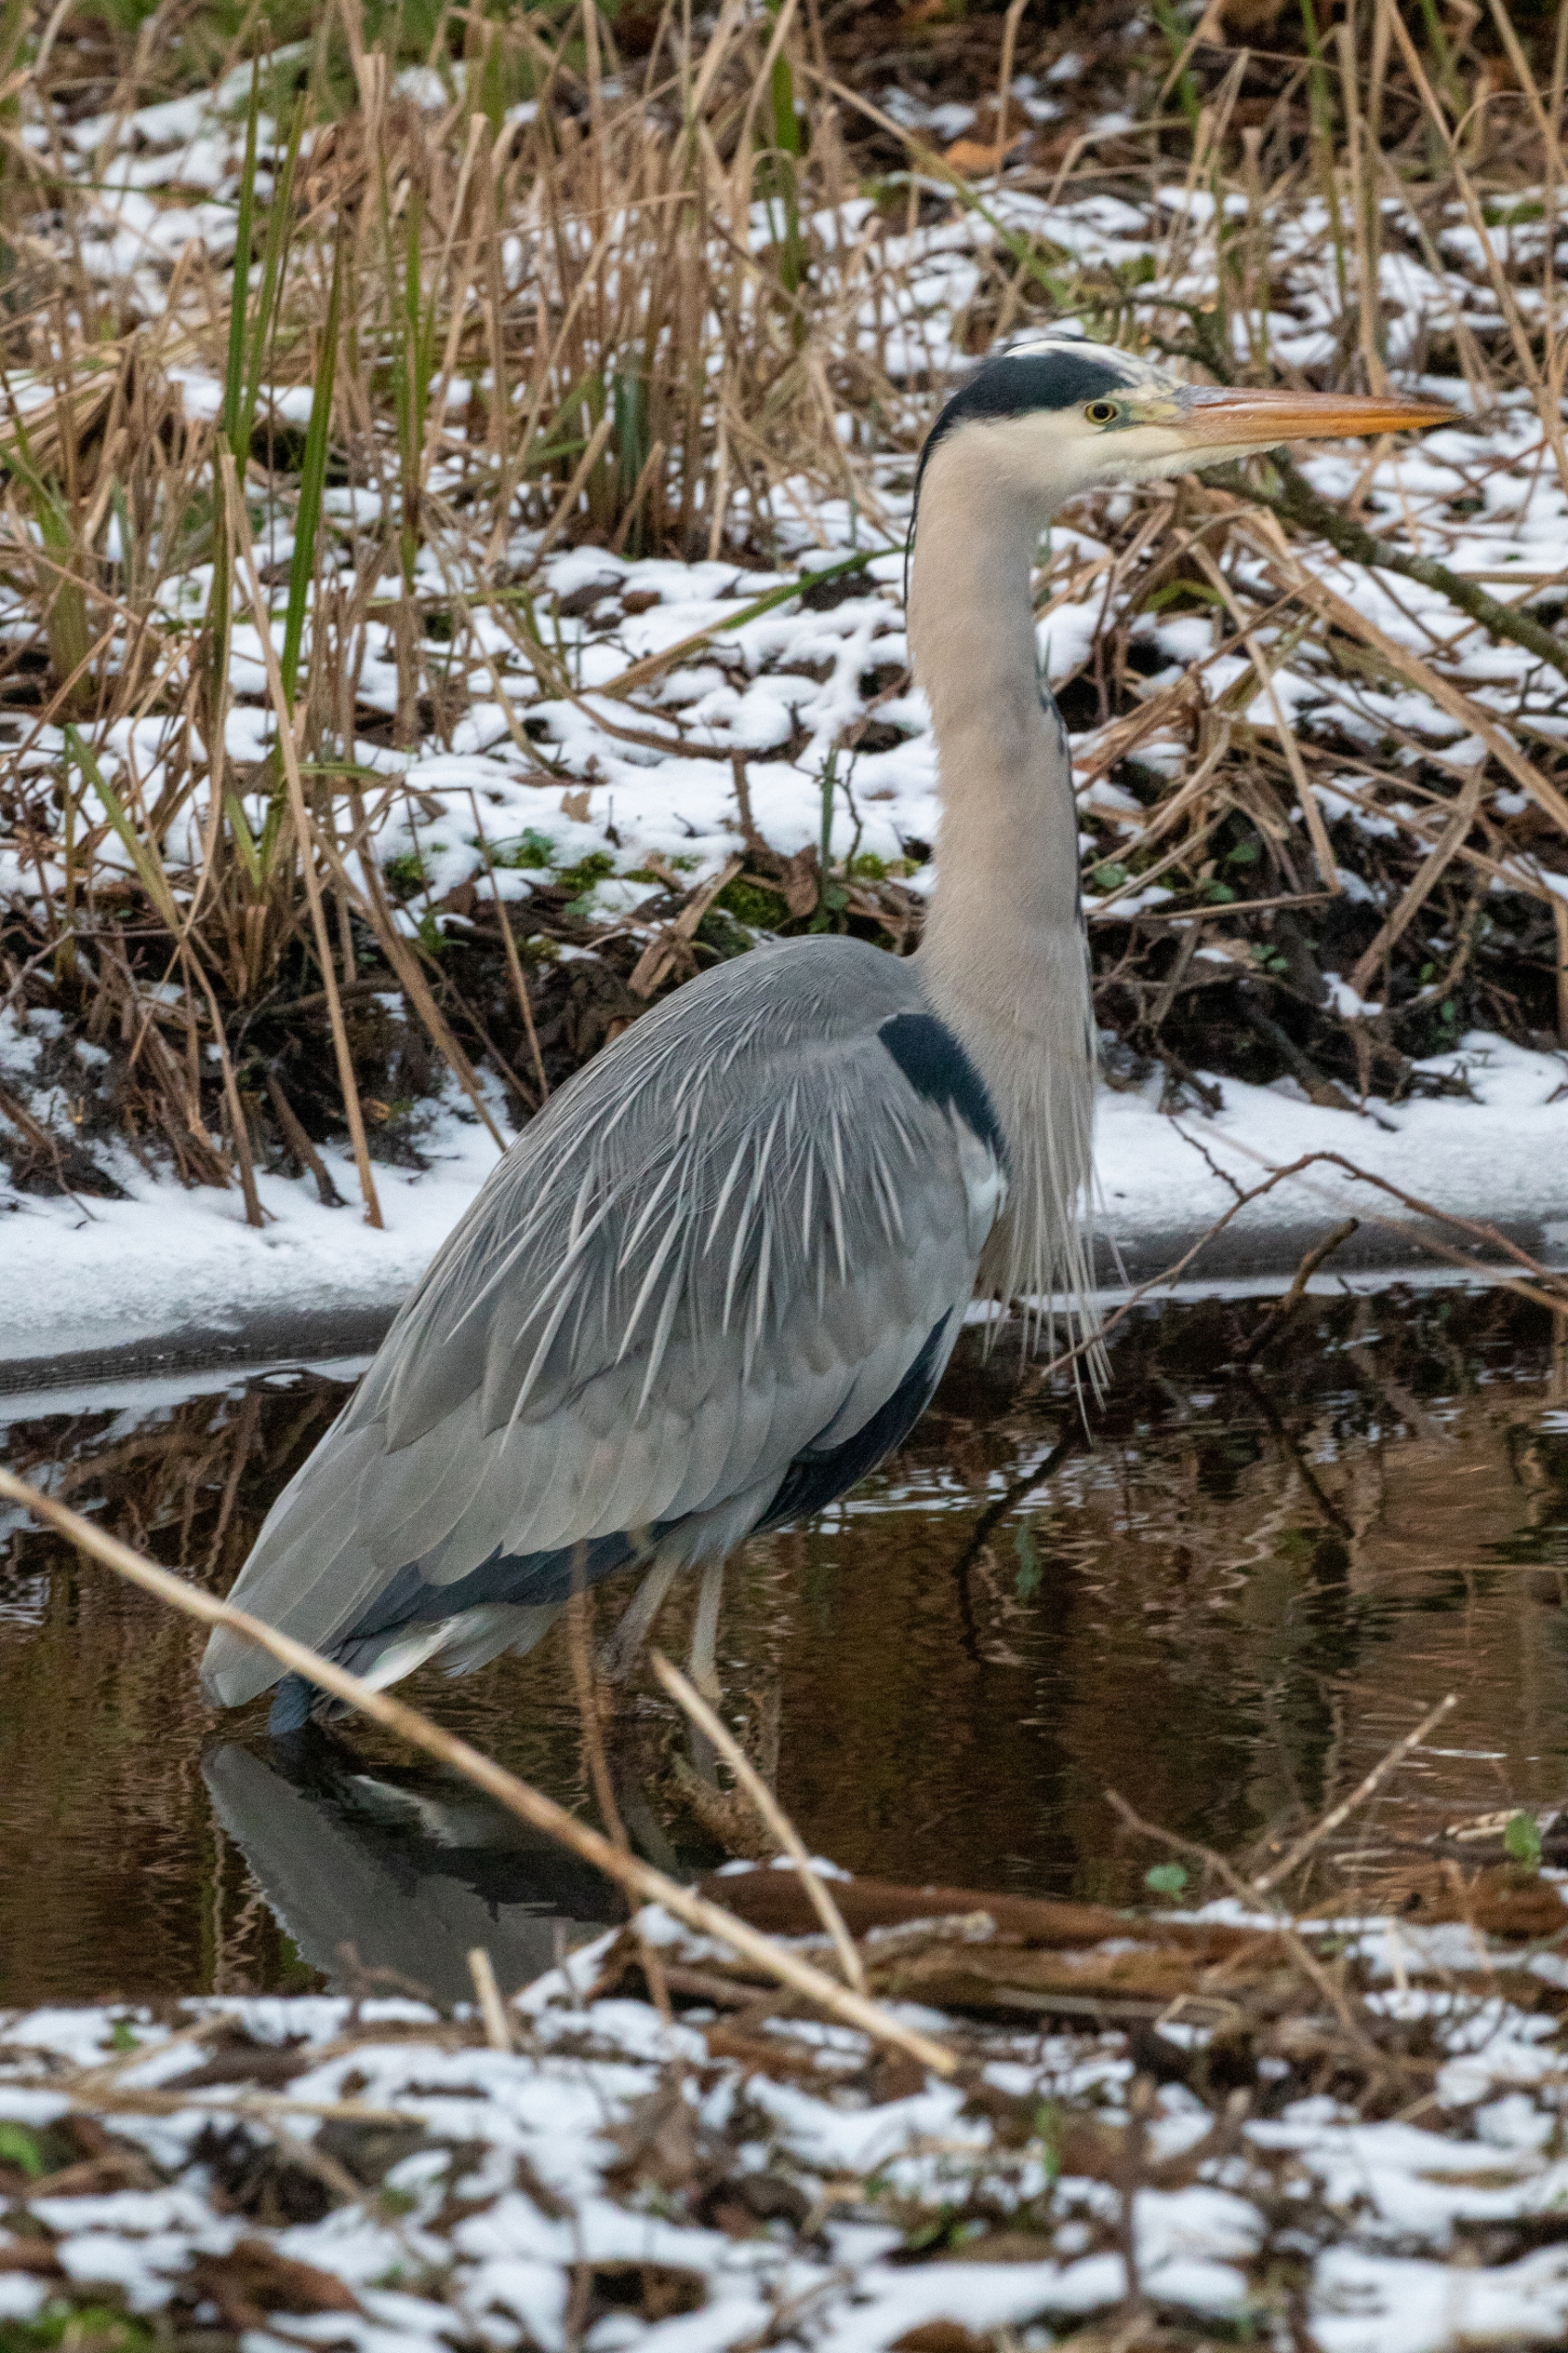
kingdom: Animalia
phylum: Chordata
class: Aves
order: Pelecaniformes
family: Ardeidae
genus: Ardea
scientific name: Ardea cinerea
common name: Fiskehejre
